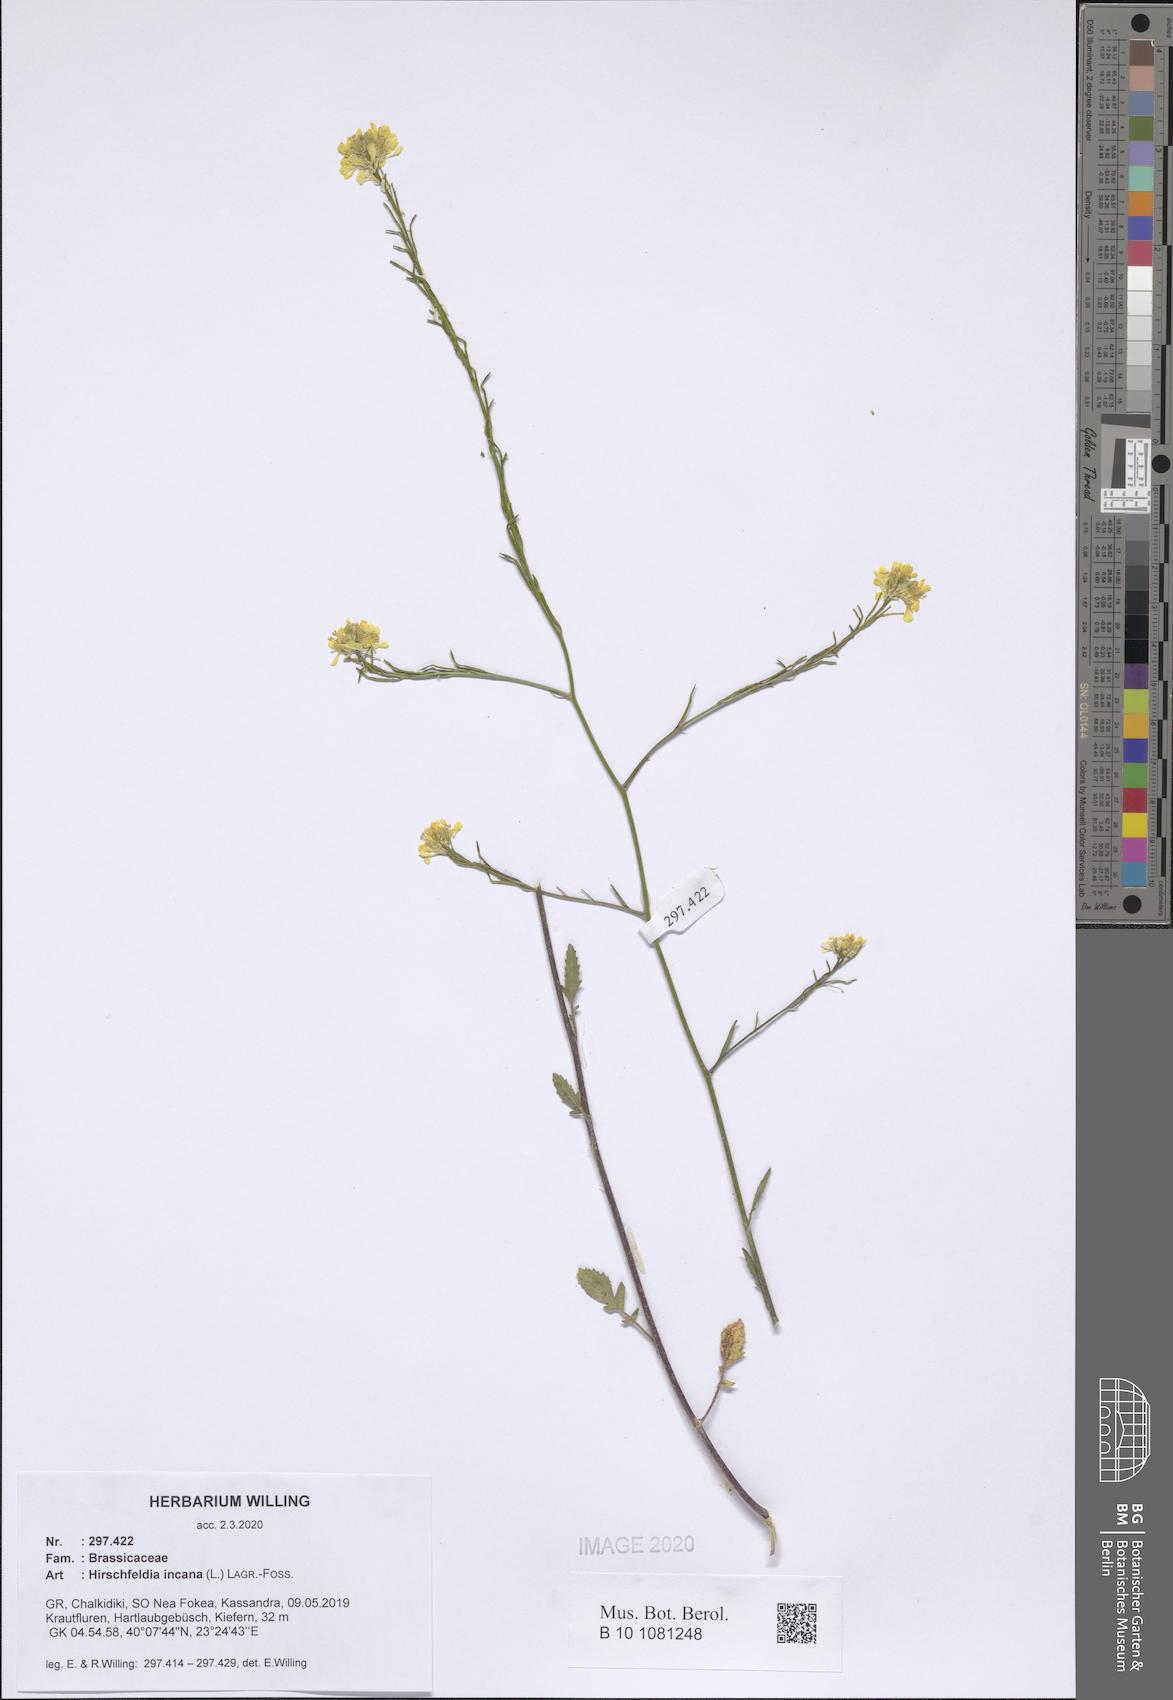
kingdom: Plantae
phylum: Tracheophyta
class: Magnoliopsida
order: Brassicales
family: Brassicaceae
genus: Hirschfeldia
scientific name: Hirschfeldia incana
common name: Hoary mustard
